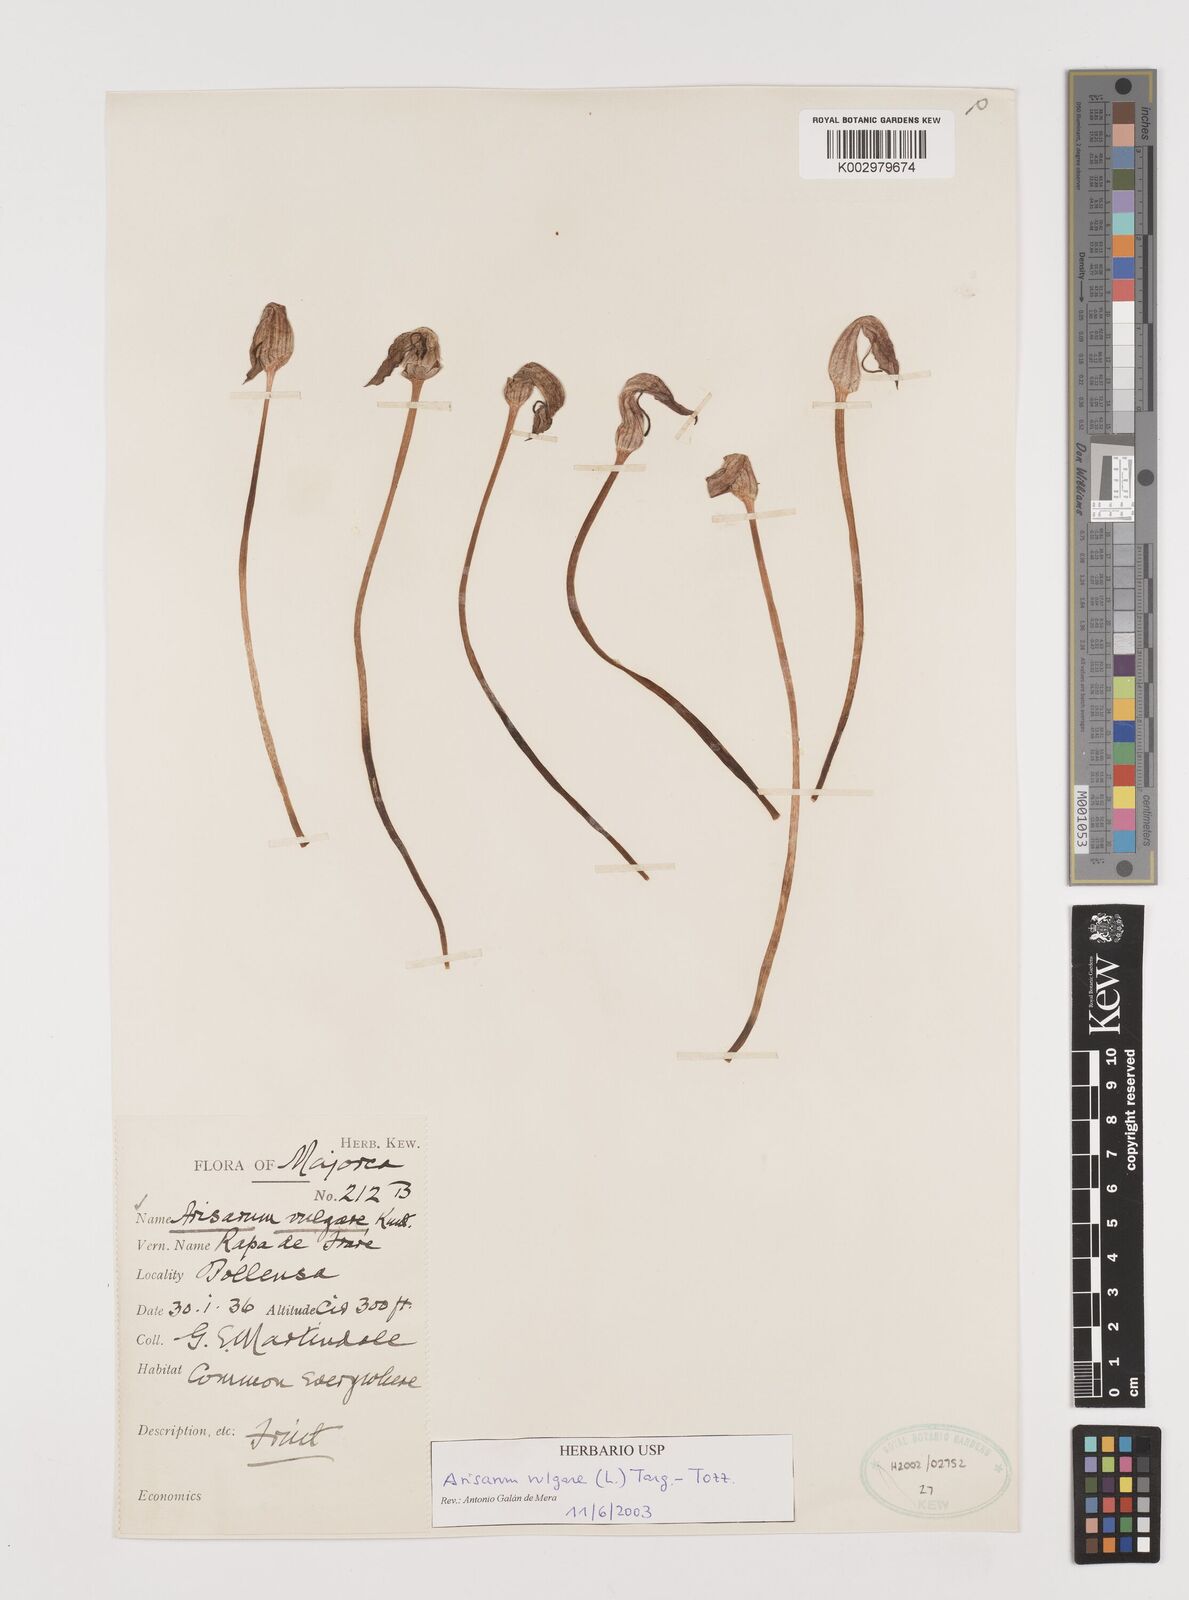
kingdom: Plantae
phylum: Tracheophyta
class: Liliopsida
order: Alismatales
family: Araceae
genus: Arisarum
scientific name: Arisarum vulgare
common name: Common arisarum
